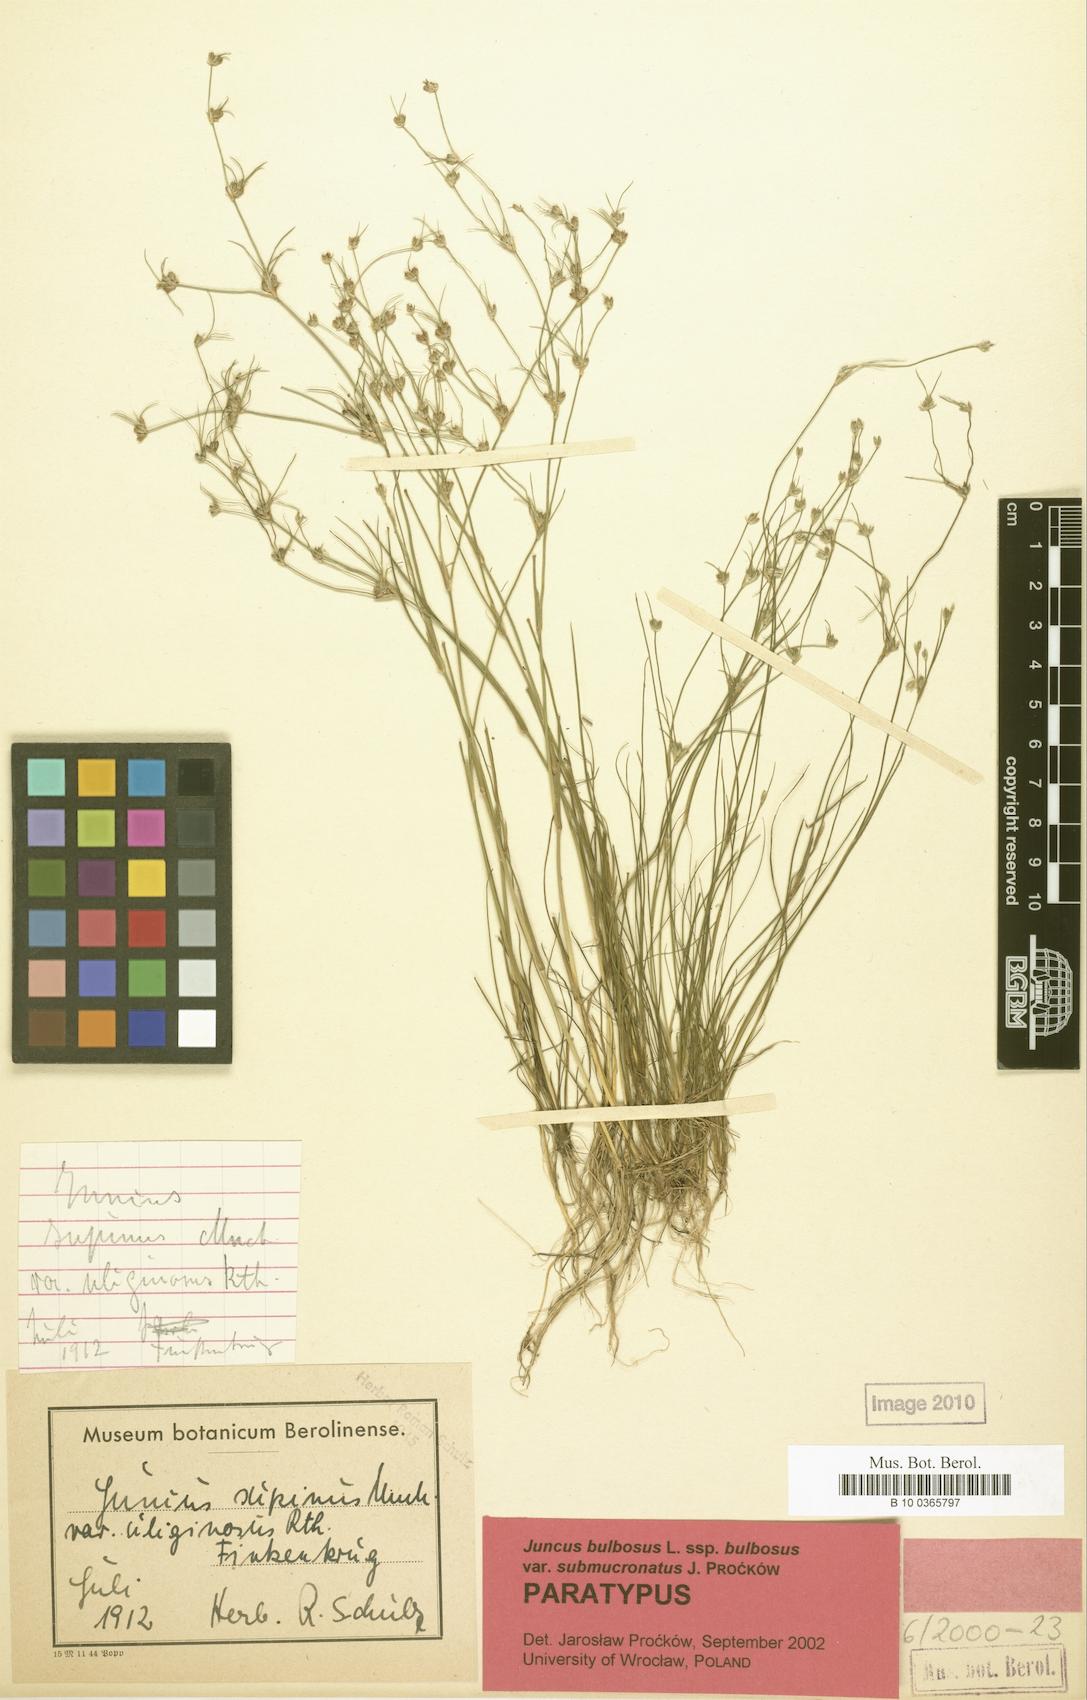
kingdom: Plantae
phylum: Tracheophyta
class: Liliopsida
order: Poales
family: Juncaceae
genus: Juncus
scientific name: Juncus bulbosus
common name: Bulbous rush
